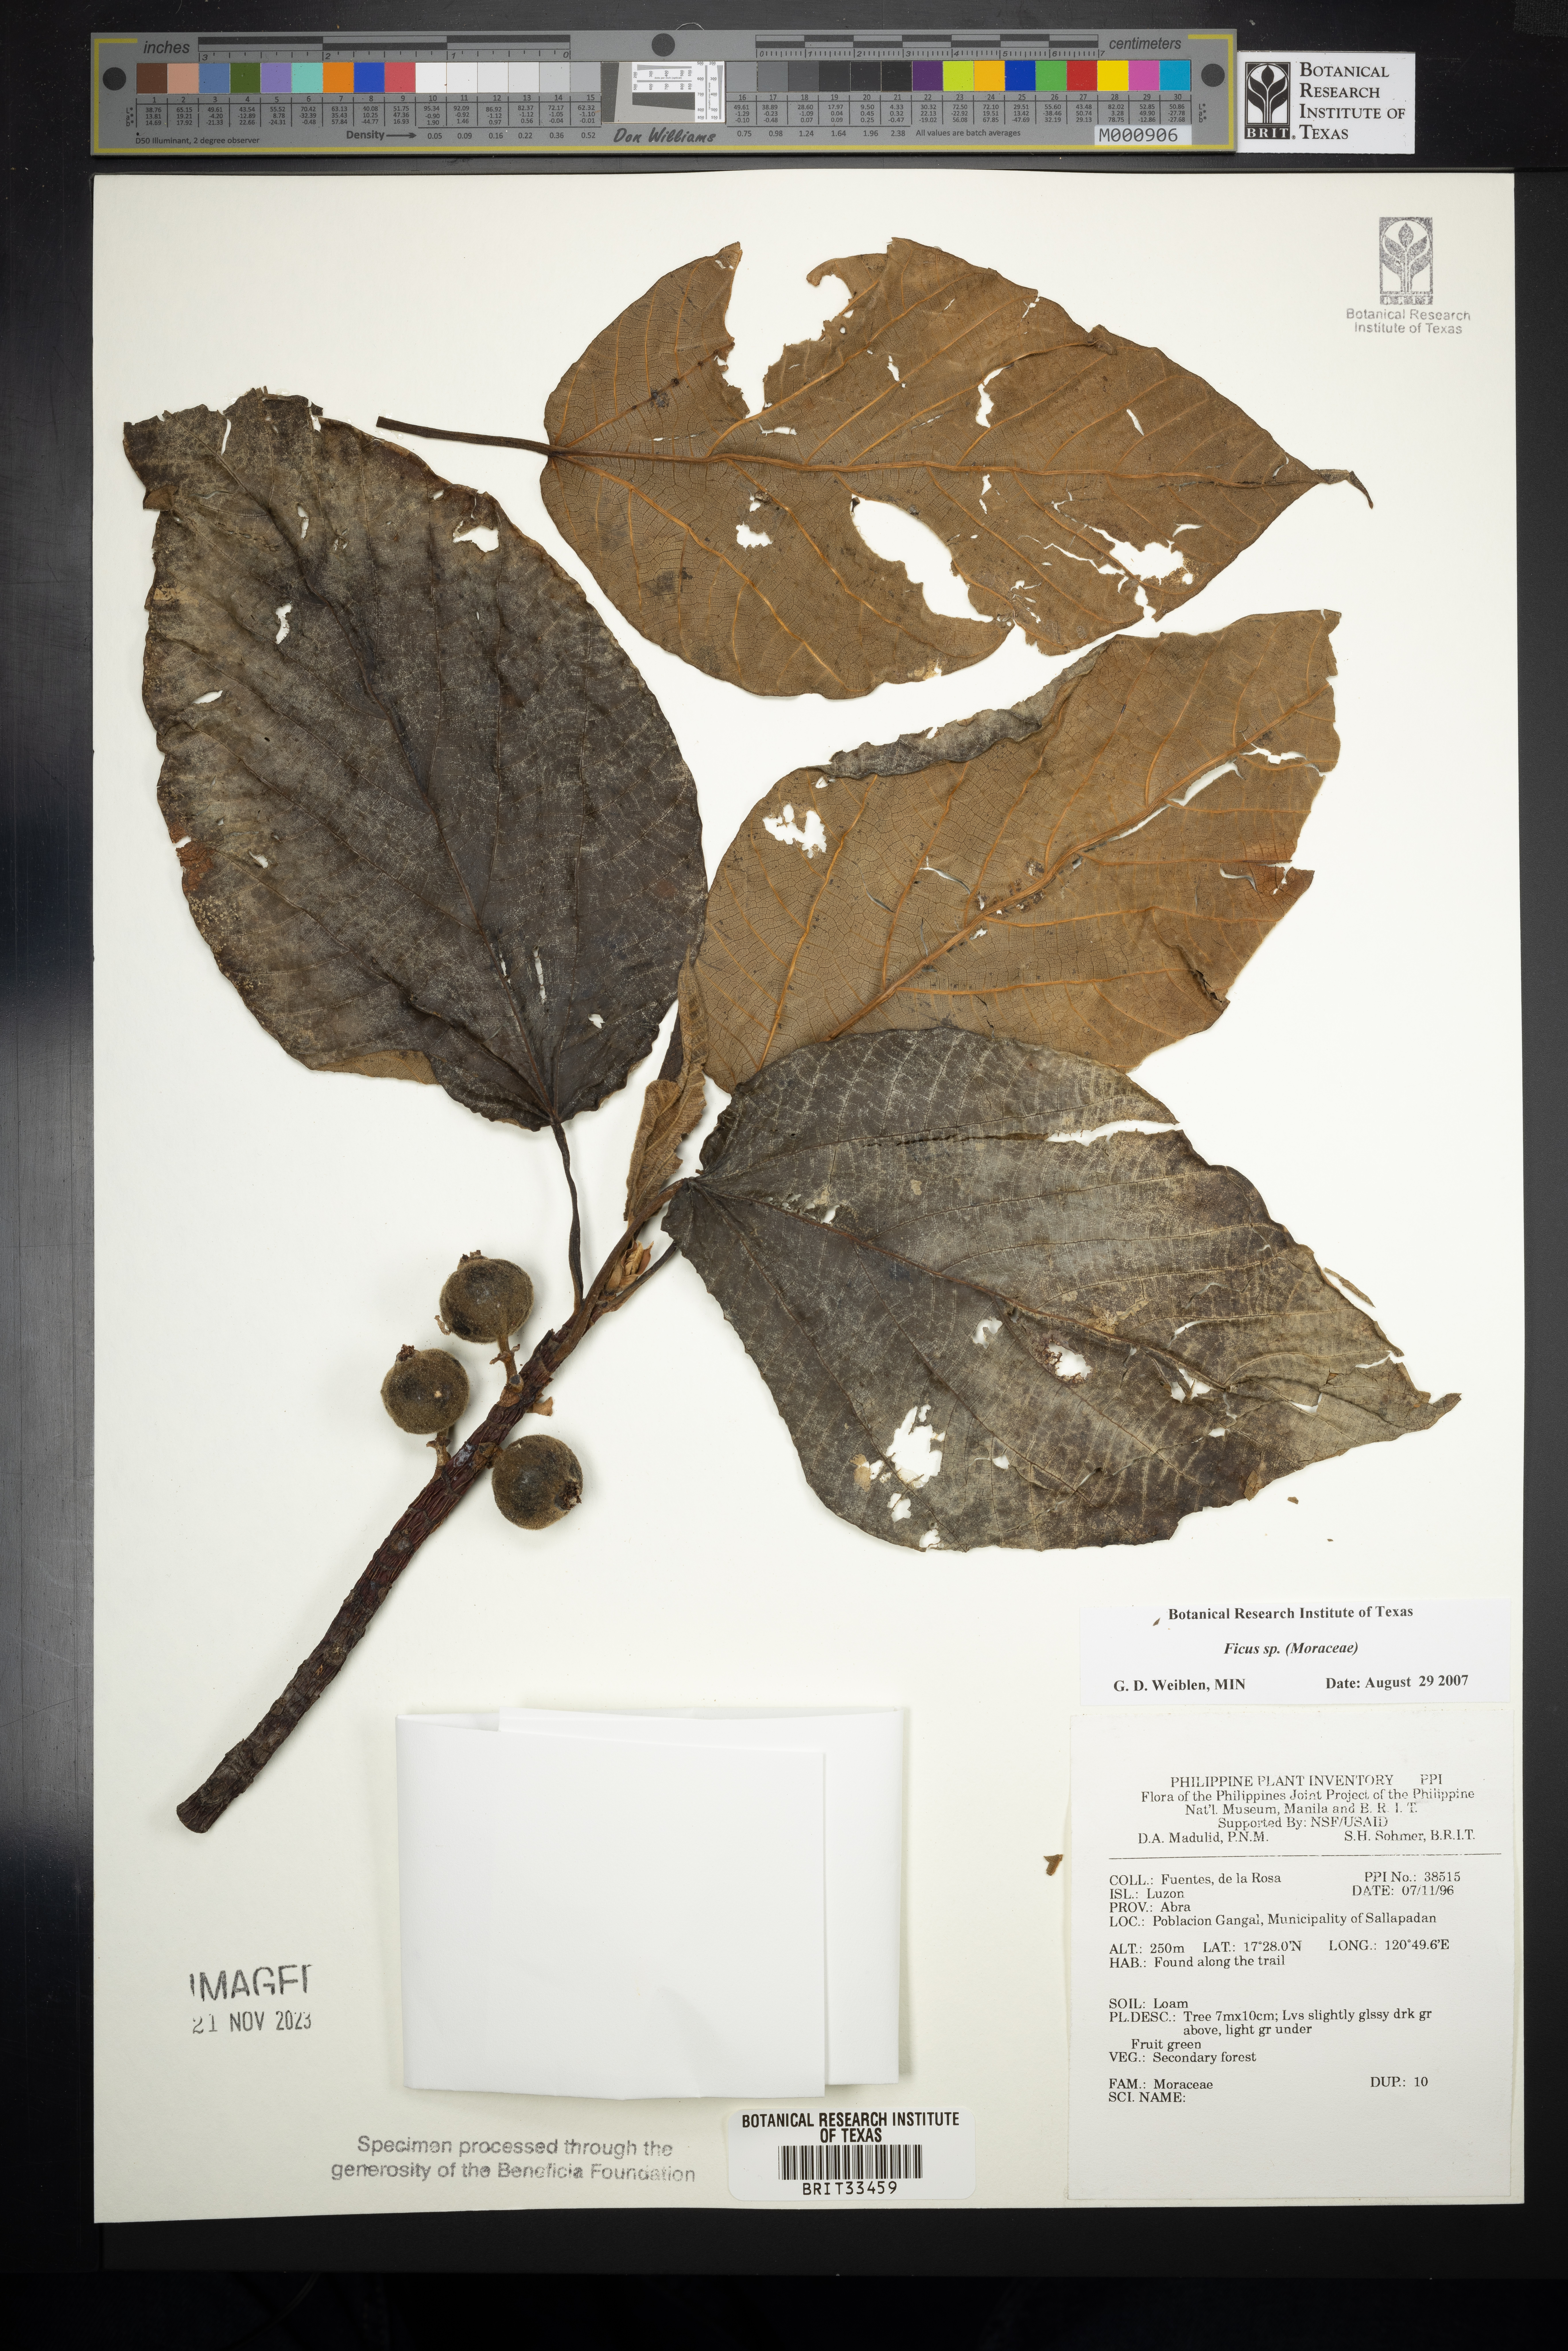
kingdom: Plantae
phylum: Tracheophyta
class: Magnoliopsida
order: Rosales
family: Moraceae
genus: Ficus
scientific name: Ficus
